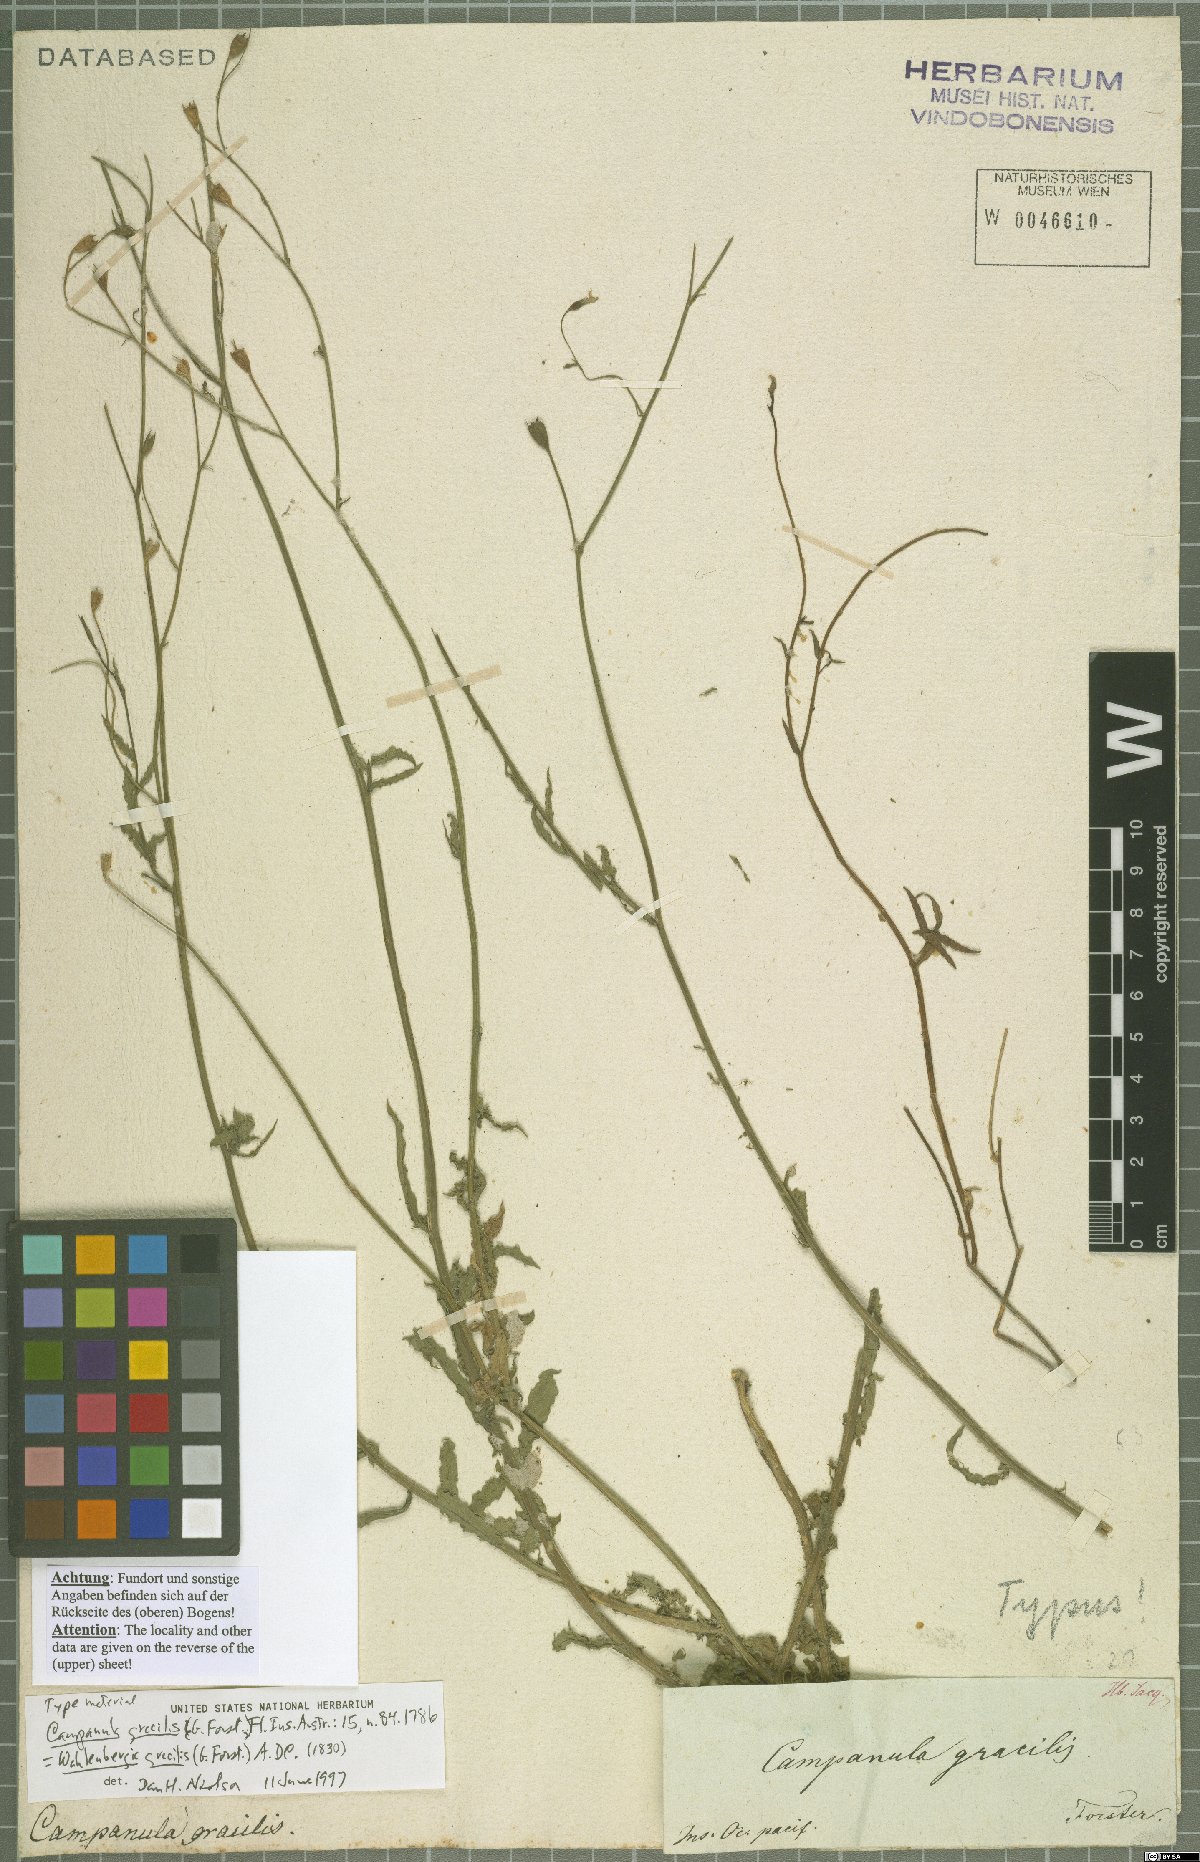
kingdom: Plantae
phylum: Tracheophyta
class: Magnoliopsida
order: Asterales
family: Campanulaceae
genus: Wahlenbergia
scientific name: Wahlenbergia gracilis
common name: Harebell
